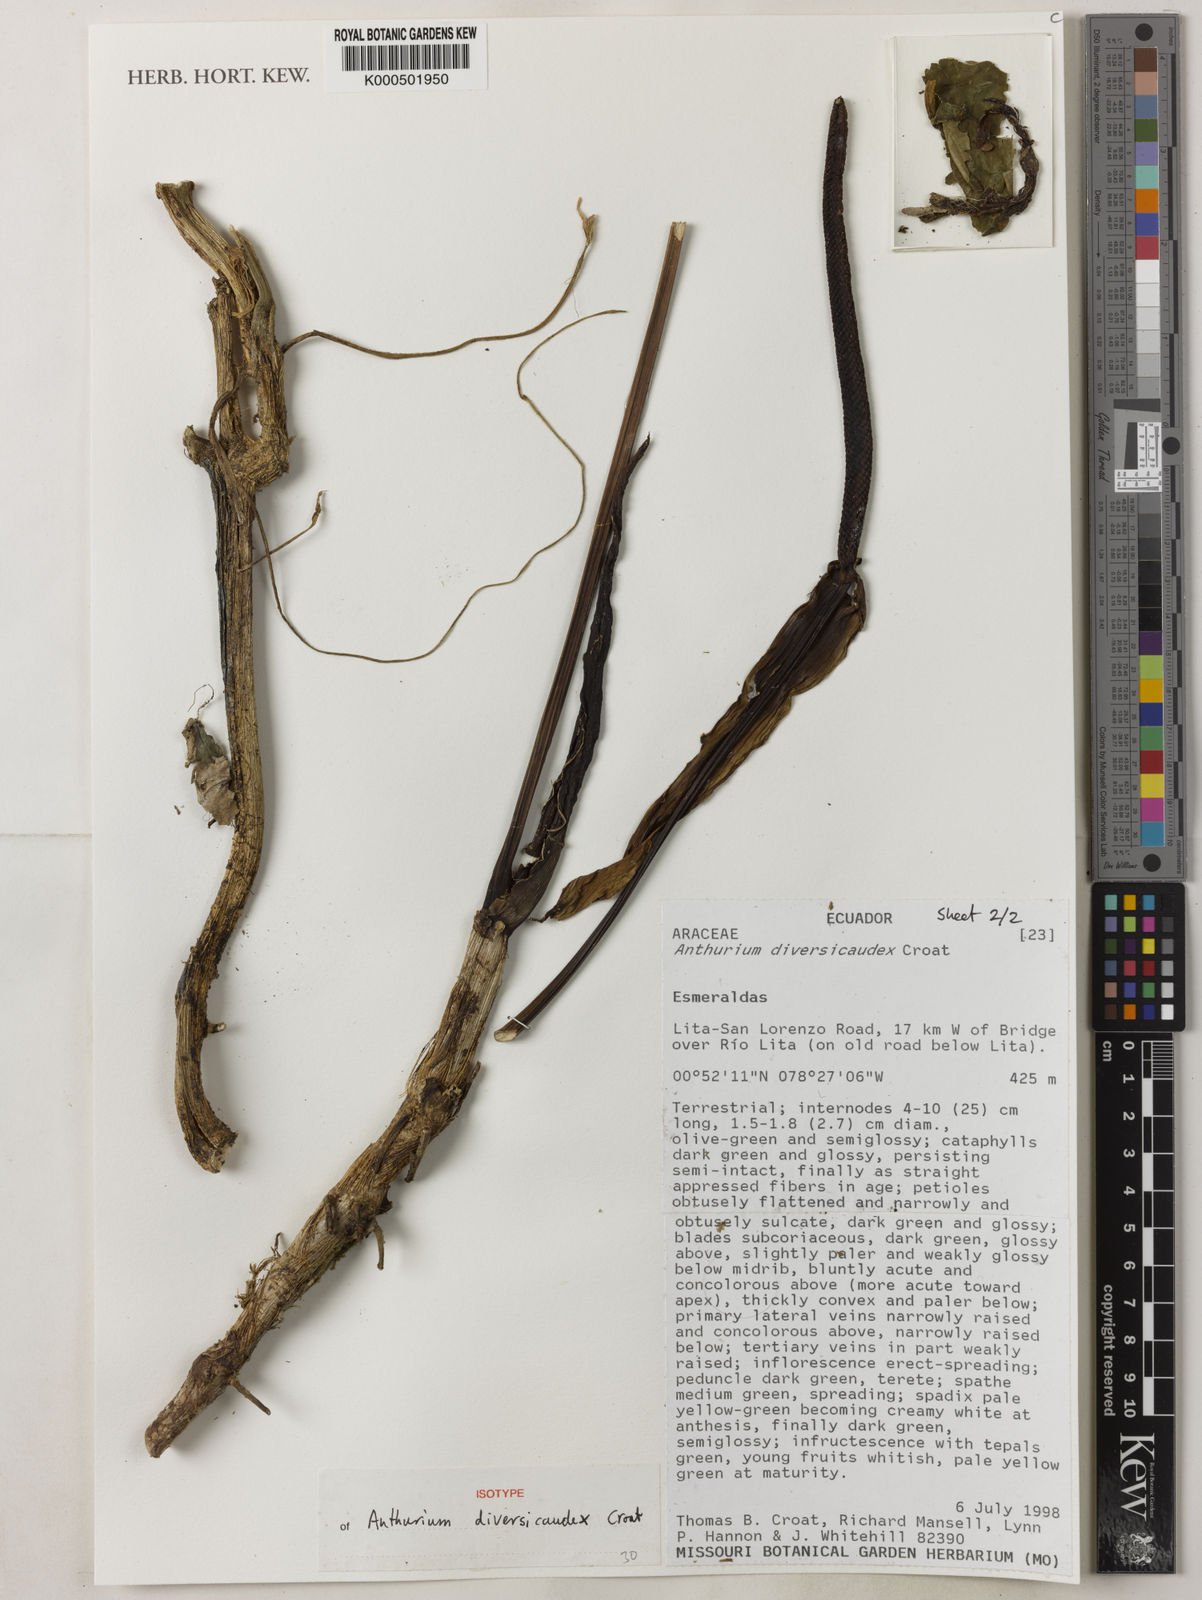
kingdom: Plantae
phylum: Tracheophyta
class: Liliopsida
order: Alismatales
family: Araceae
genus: Anthurium
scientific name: Anthurium diversicaudex
